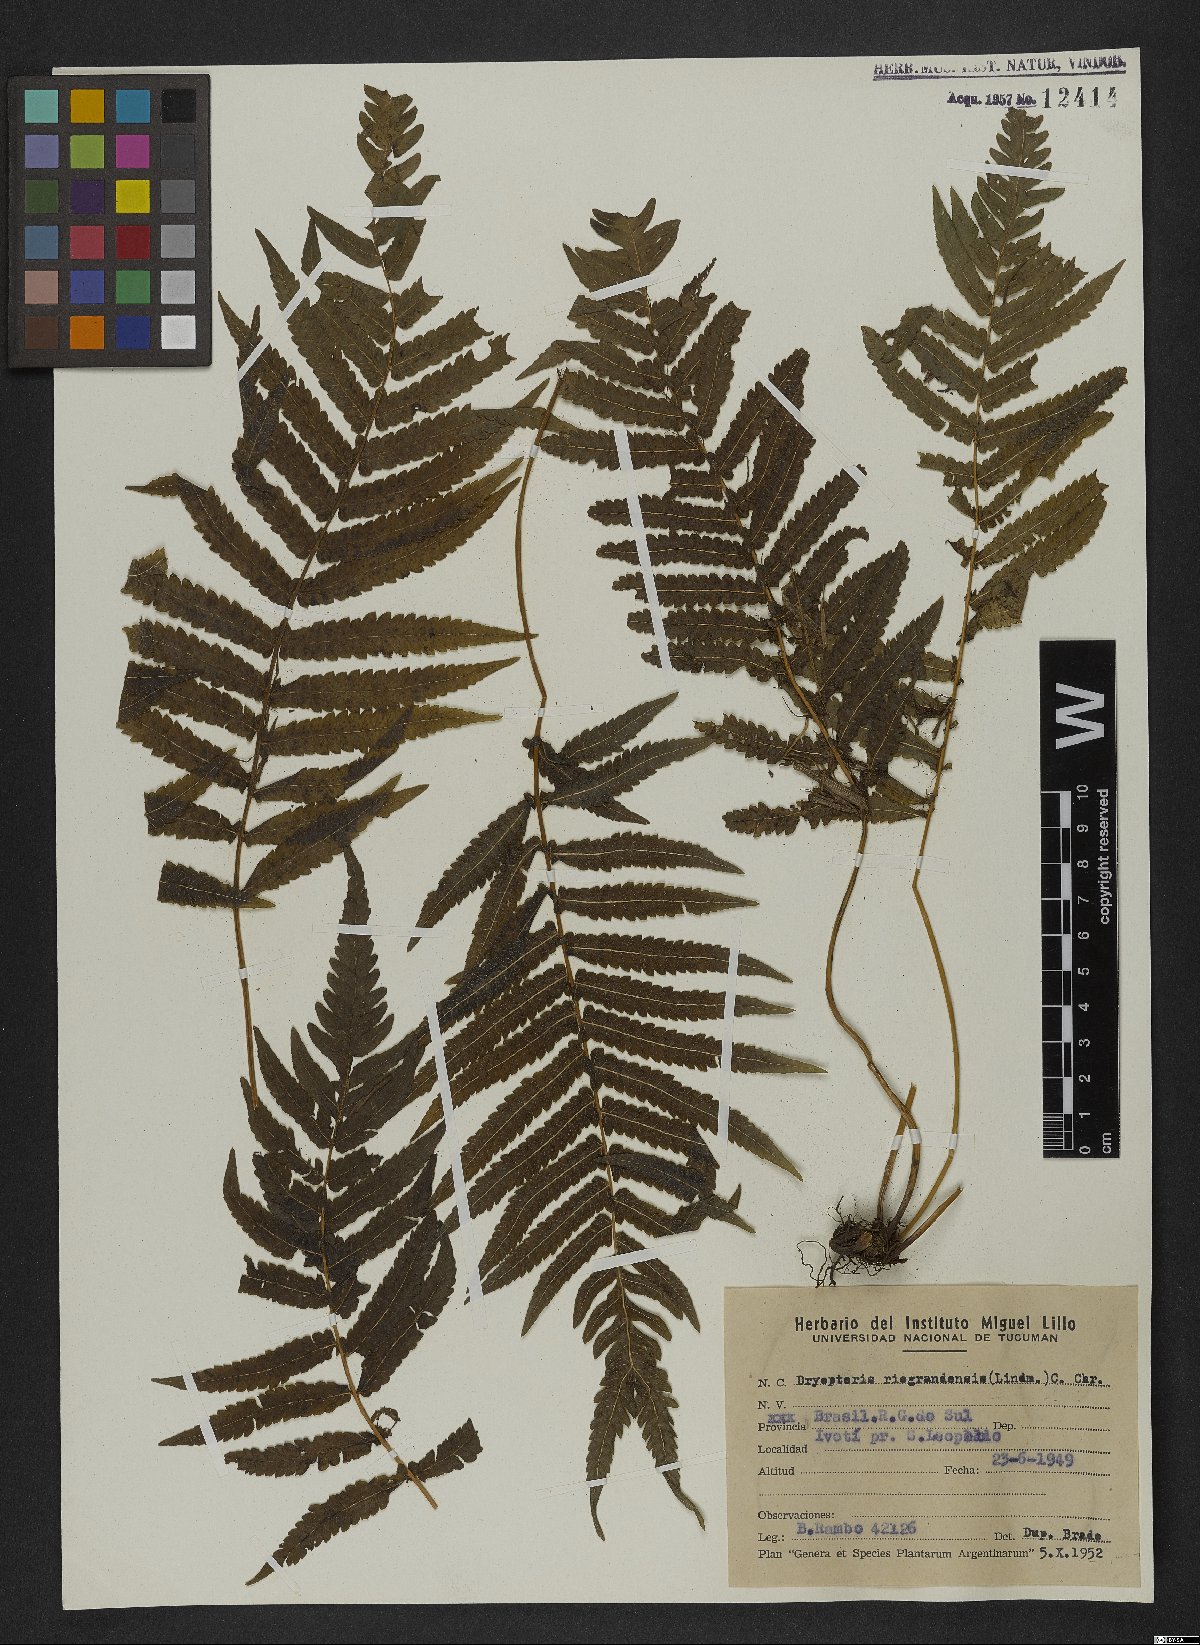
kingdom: Plantae
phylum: Tracheophyta
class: Polypodiopsida
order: Polypodiales
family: Thelypteridaceae
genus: Goniopteris
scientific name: Goniopteris riograndensis
